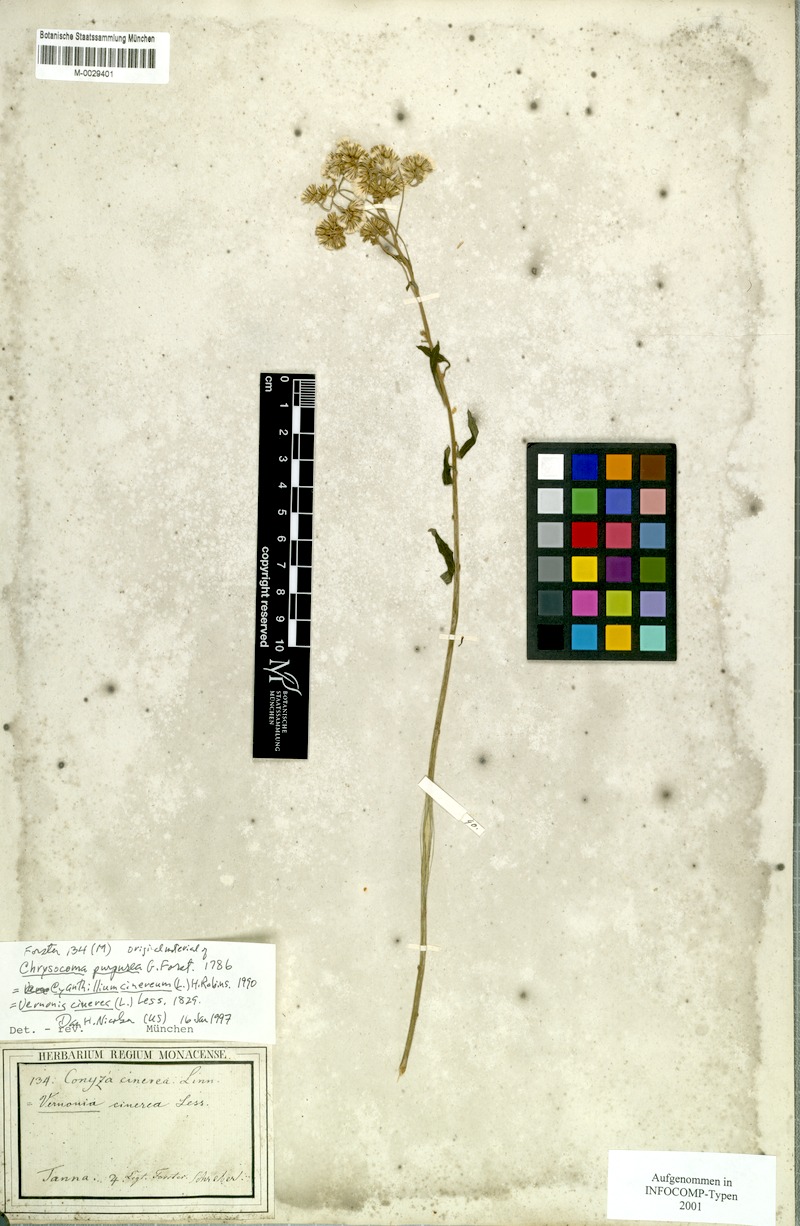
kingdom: Plantae
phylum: Tracheophyta
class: Magnoliopsida
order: Asterales
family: Asteraceae
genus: Cyanthillium
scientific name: Cyanthillium cinereum
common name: Little ironweed
